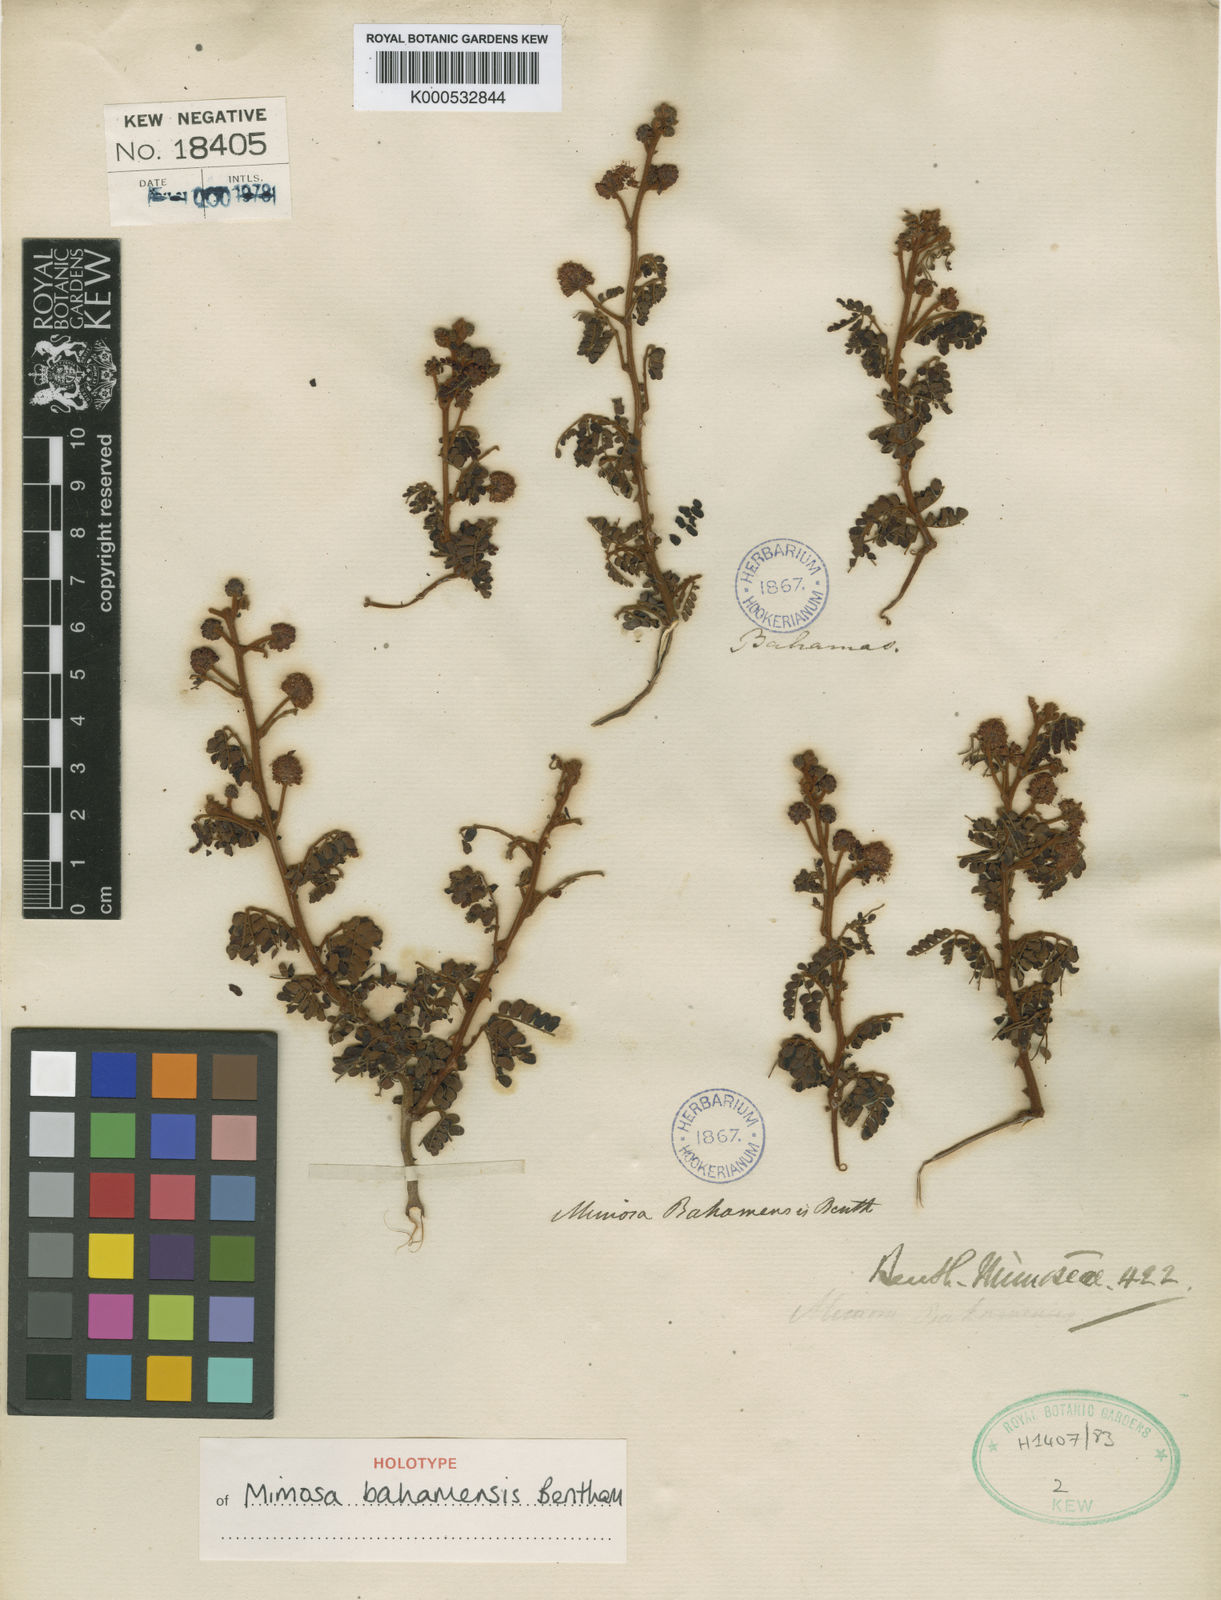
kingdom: Plantae
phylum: Tracheophyta
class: Magnoliopsida
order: Fabales
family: Fabaceae
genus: Mimosa
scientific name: Mimosa bahamensis
